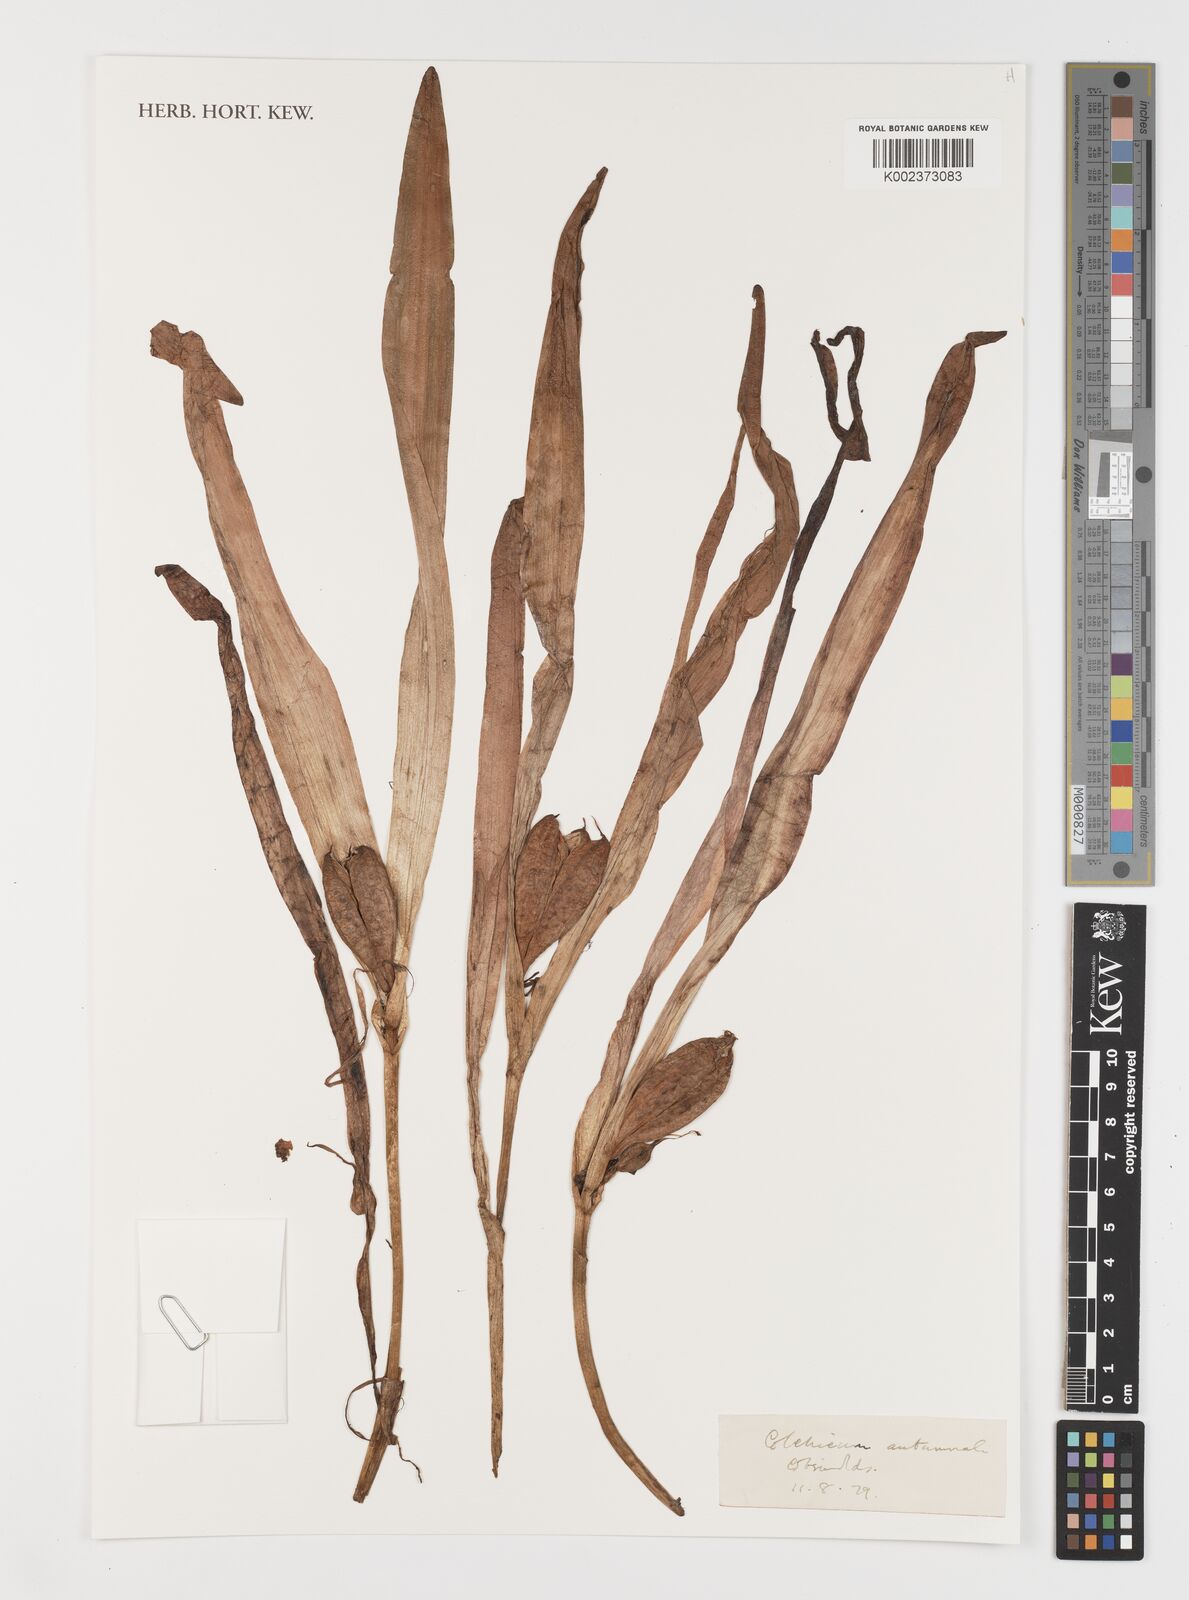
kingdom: Plantae
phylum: Tracheophyta
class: Liliopsida
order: Liliales
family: Colchicaceae
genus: Colchicum
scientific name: Colchicum autumnale
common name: Autumn crocus
